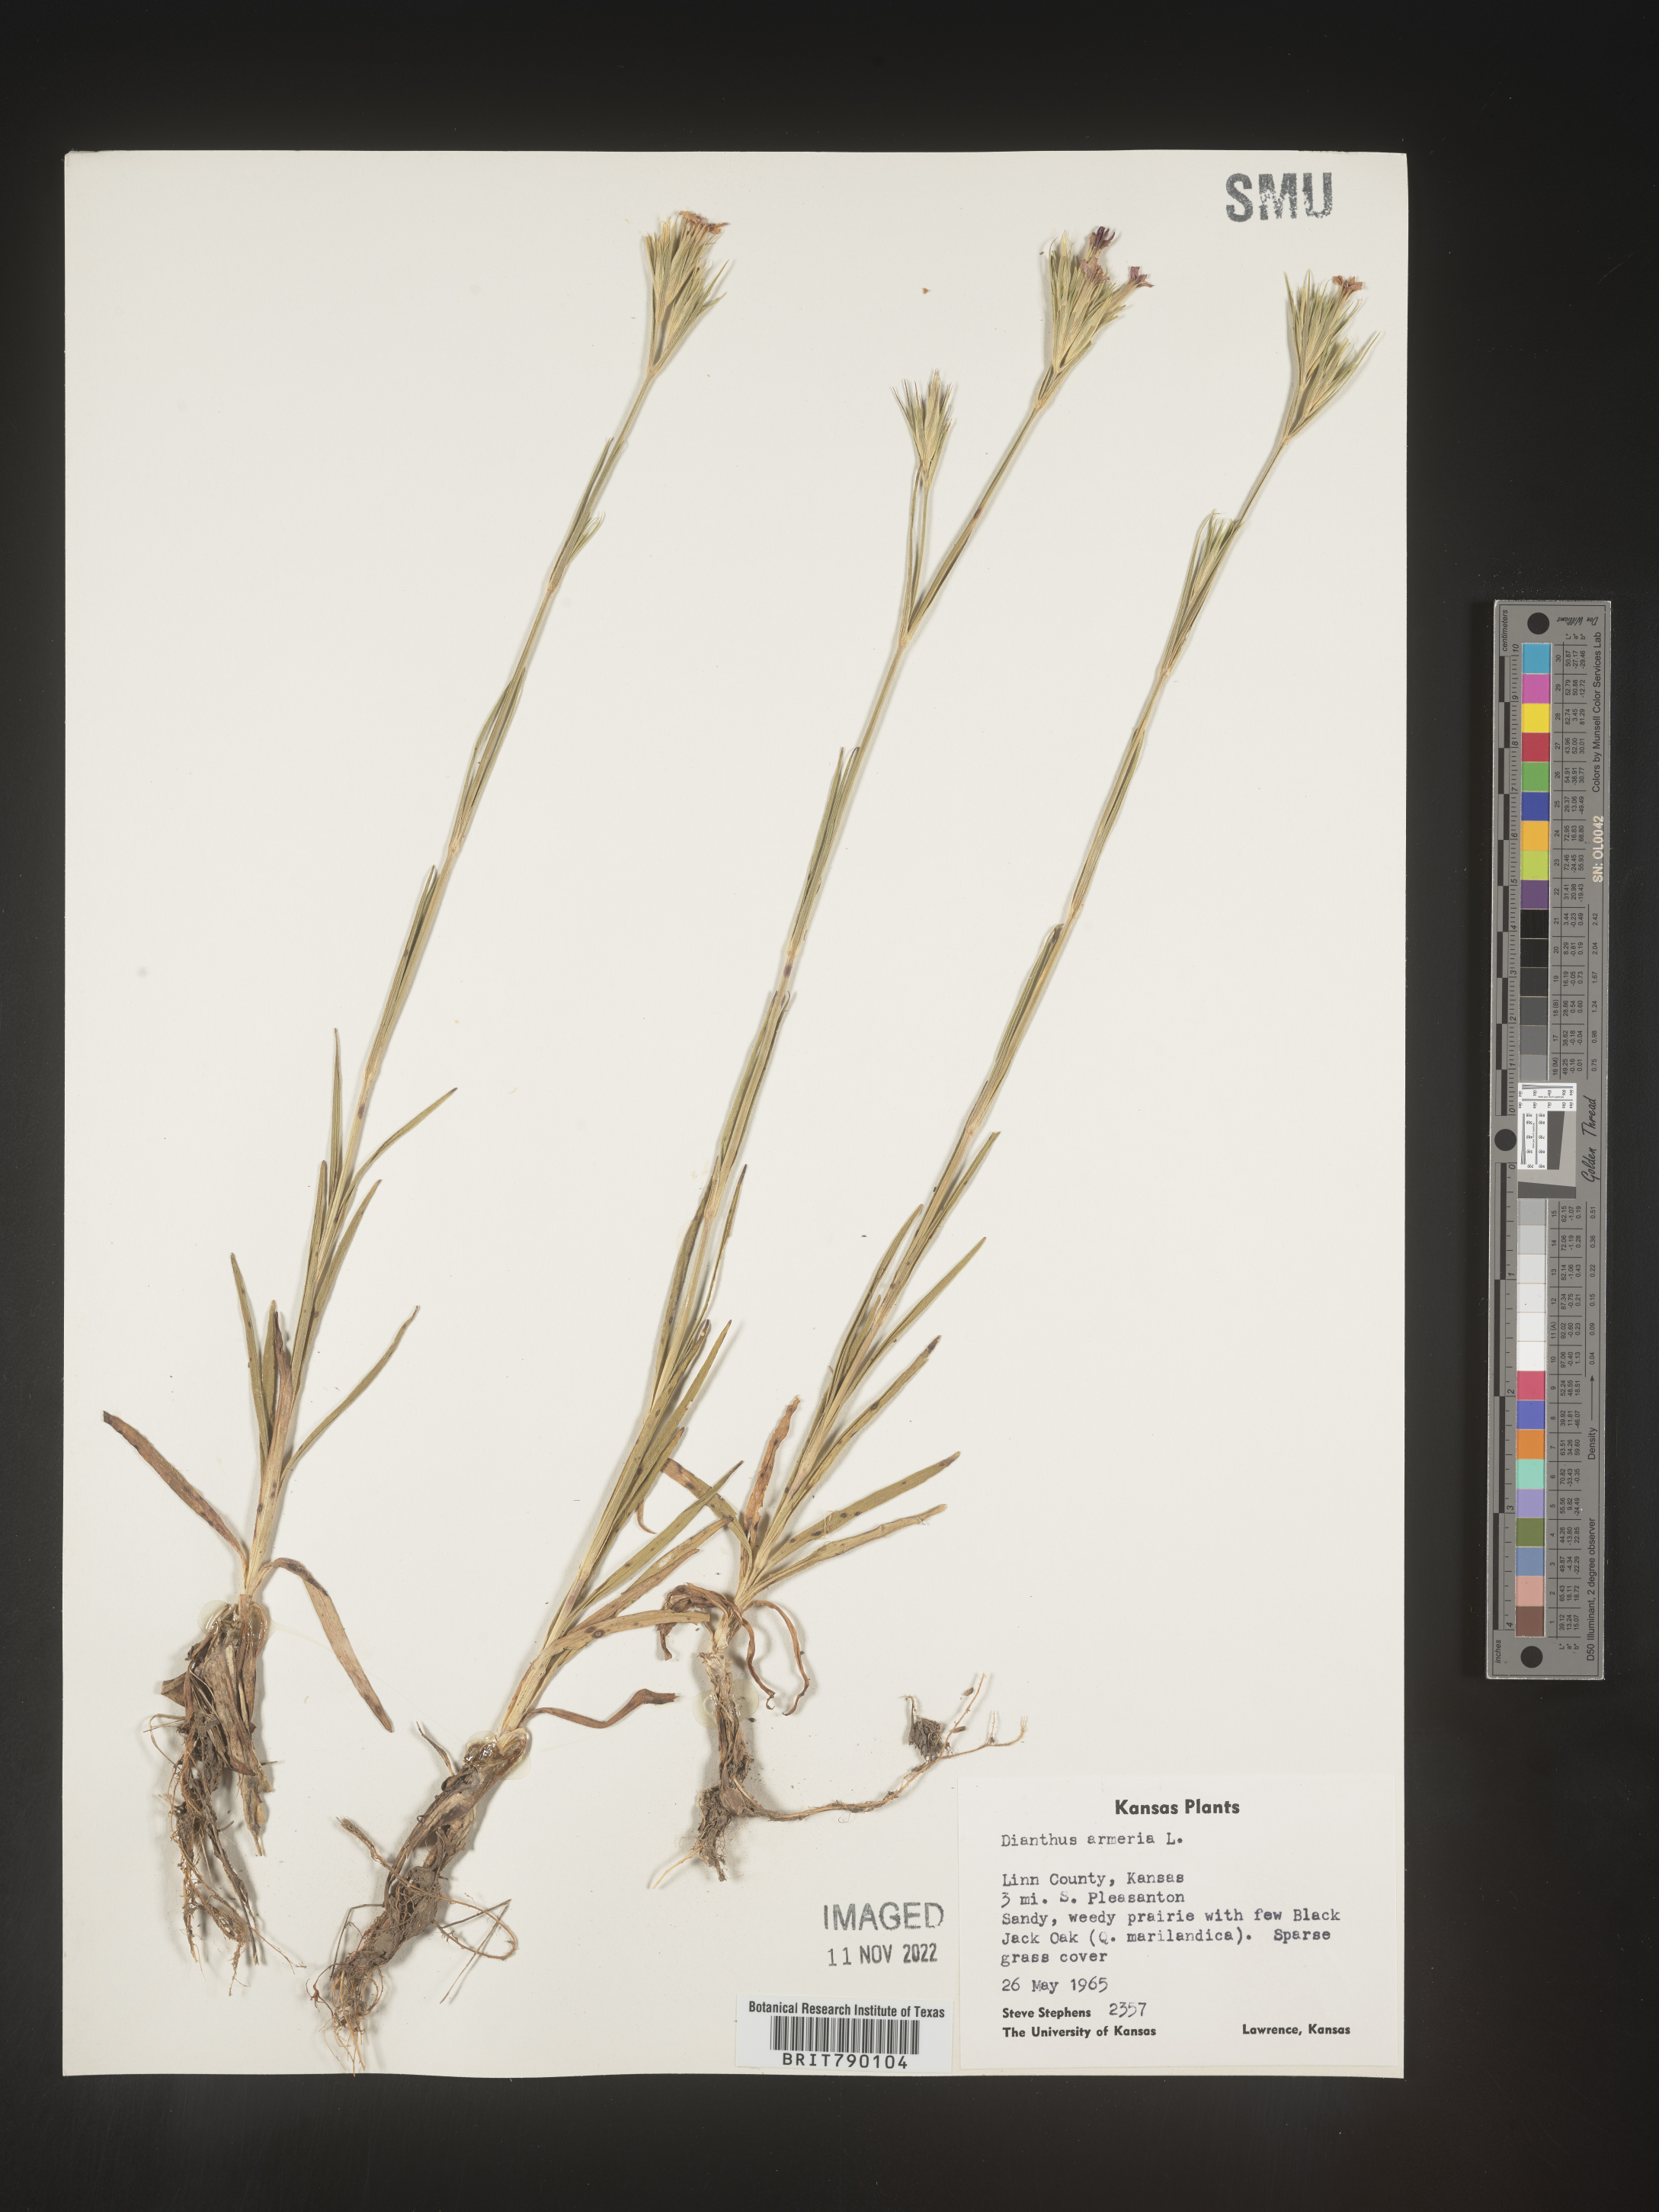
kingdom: Plantae
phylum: Tracheophyta
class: Magnoliopsida
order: Caryophyllales
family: Caryophyllaceae
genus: Dianthus
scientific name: Dianthus armeria
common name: Deptford pink
